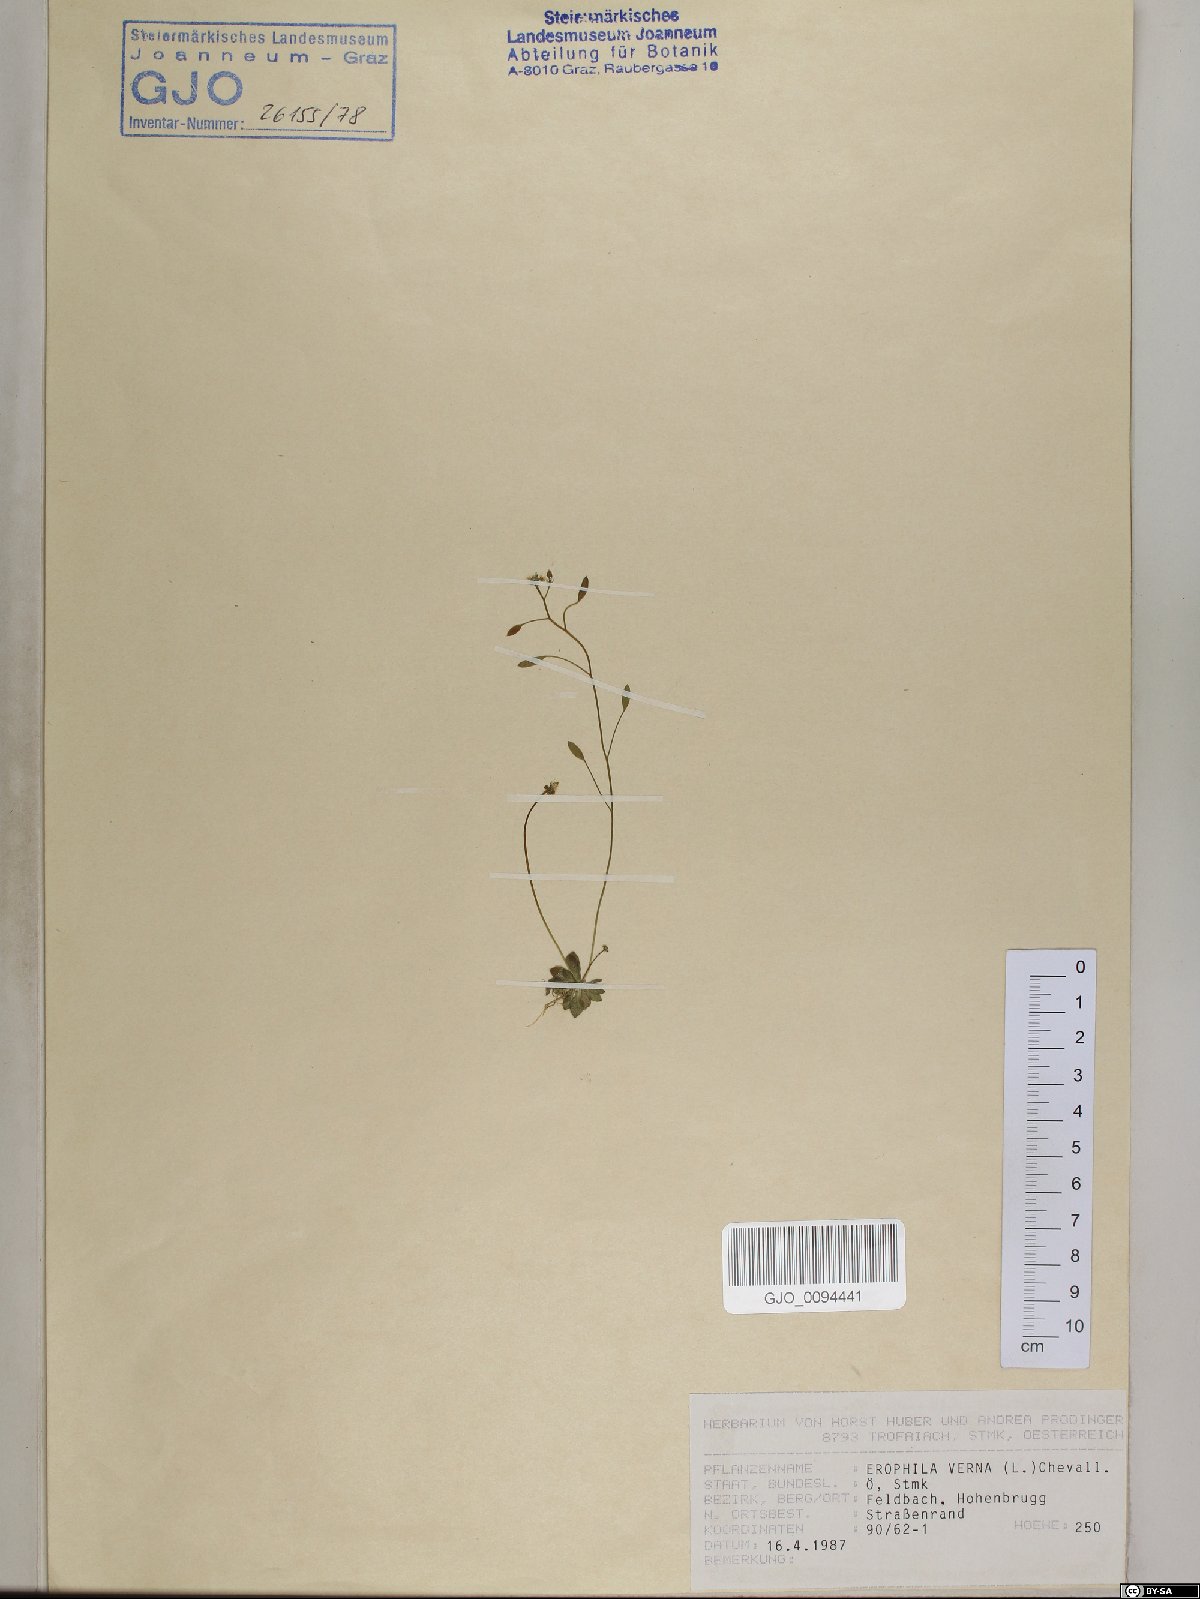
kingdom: Plantae
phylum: Tracheophyta
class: Magnoliopsida
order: Brassicales
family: Brassicaceae
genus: Draba
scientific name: Draba verna
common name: Spring draba
